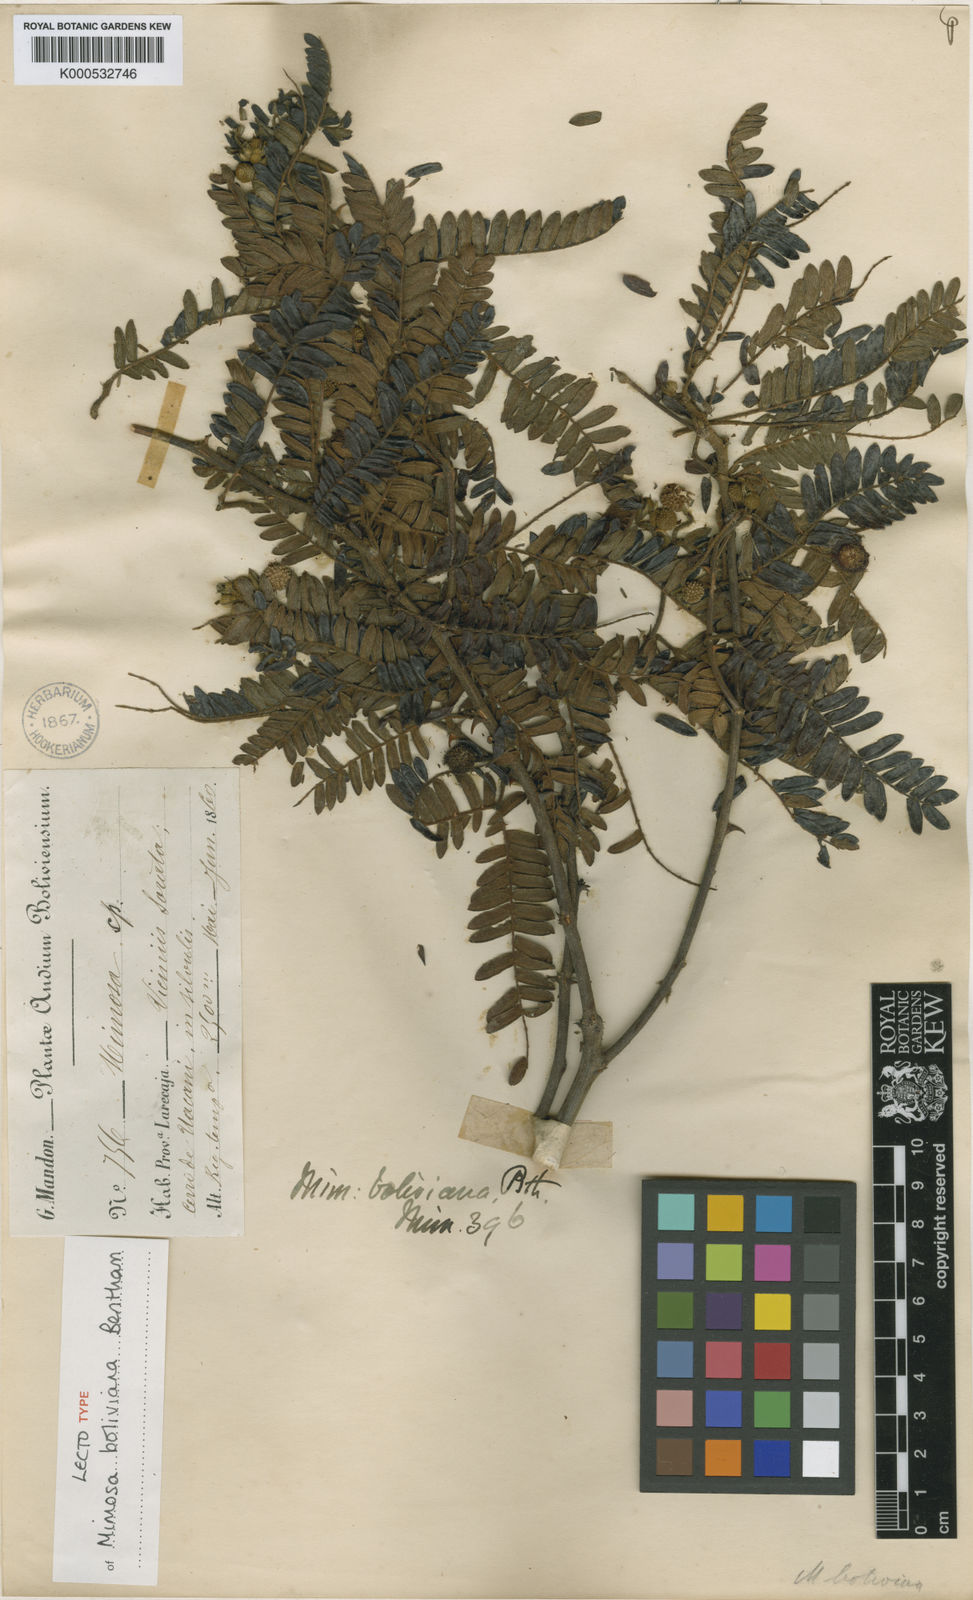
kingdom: Plantae
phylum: Tracheophyta
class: Magnoliopsida
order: Fabales
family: Fabaceae
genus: Mimosa
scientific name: Mimosa boliviana
